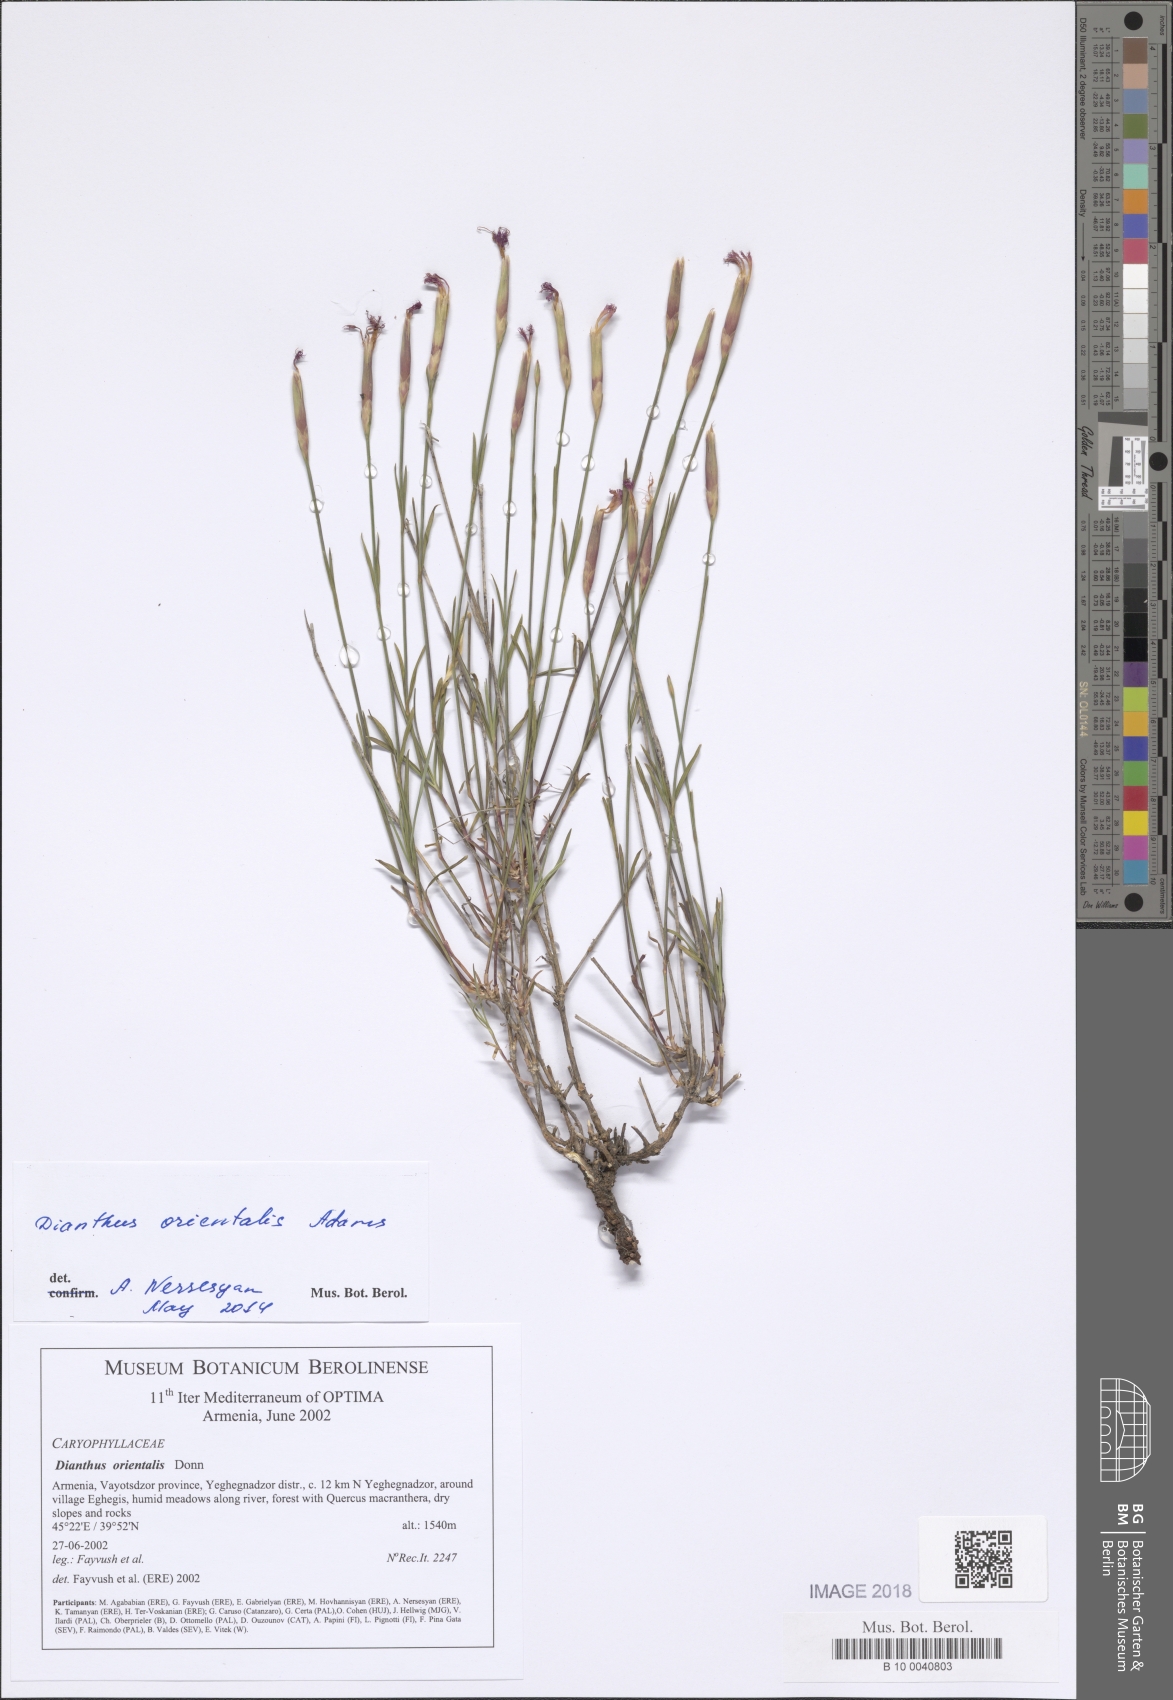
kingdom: Plantae
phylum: Tracheophyta
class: Magnoliopsida
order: Caryophyllales
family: Caryophyllaceae
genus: Dianthus
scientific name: Dianthus orientalis
